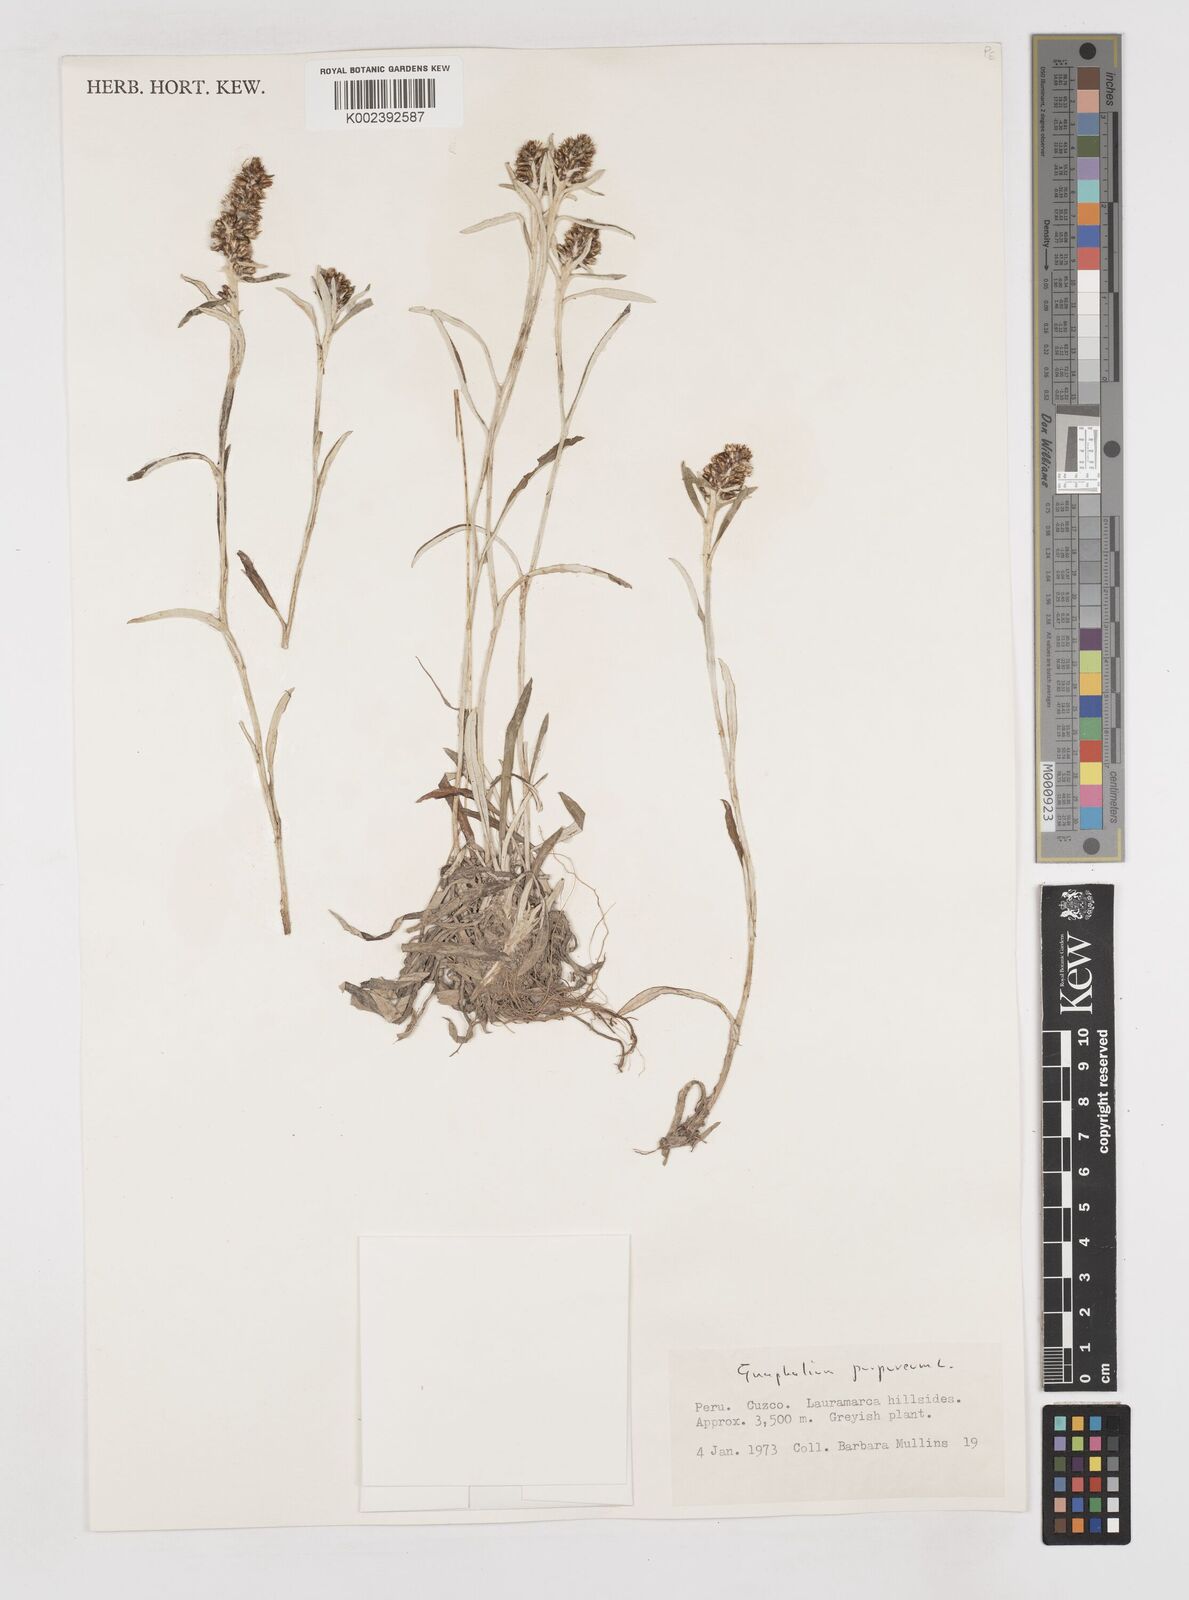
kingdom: Plantae
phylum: Tracheophyta
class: Magnoliopsida
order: Asterales
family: Asteraceae
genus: Pseudognaphalium
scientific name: Pseudognaphalium purpurascens
